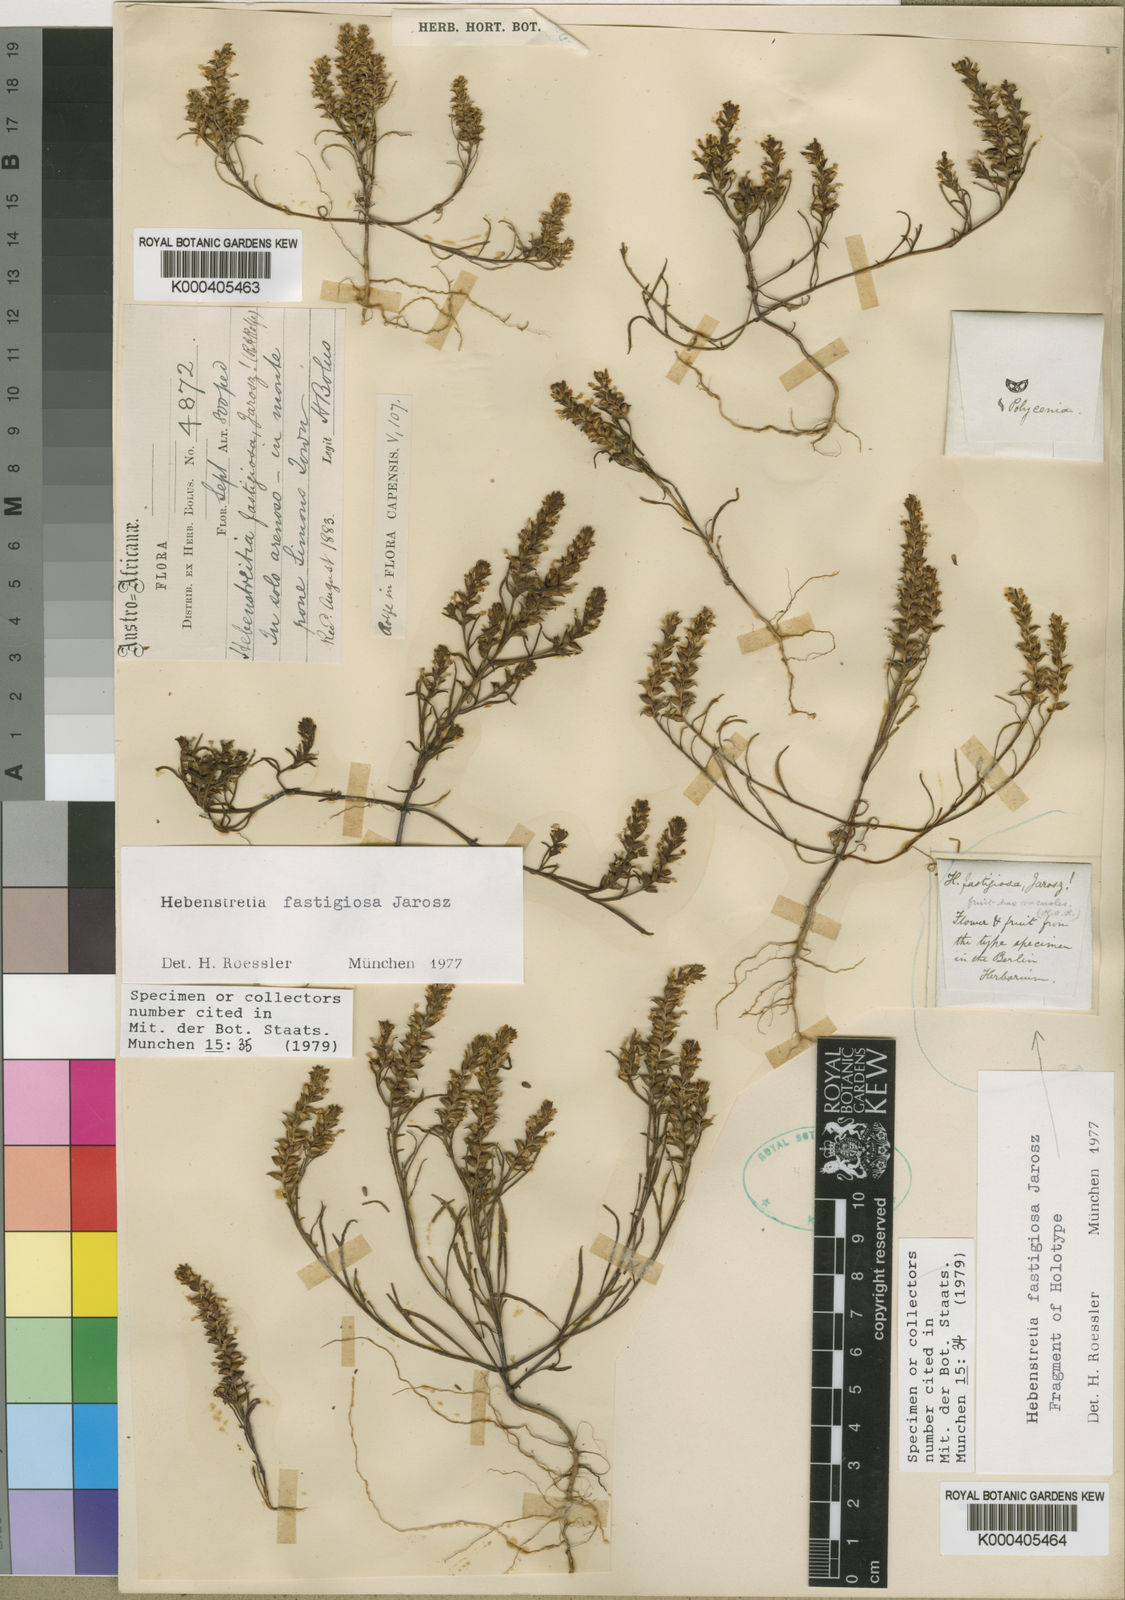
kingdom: Plantae
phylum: Tracheophyta
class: Magnoliopsida
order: Lamiales
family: Scrophulariaceae
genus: Hebenstretia
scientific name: Hebenstretia fastigiosa
